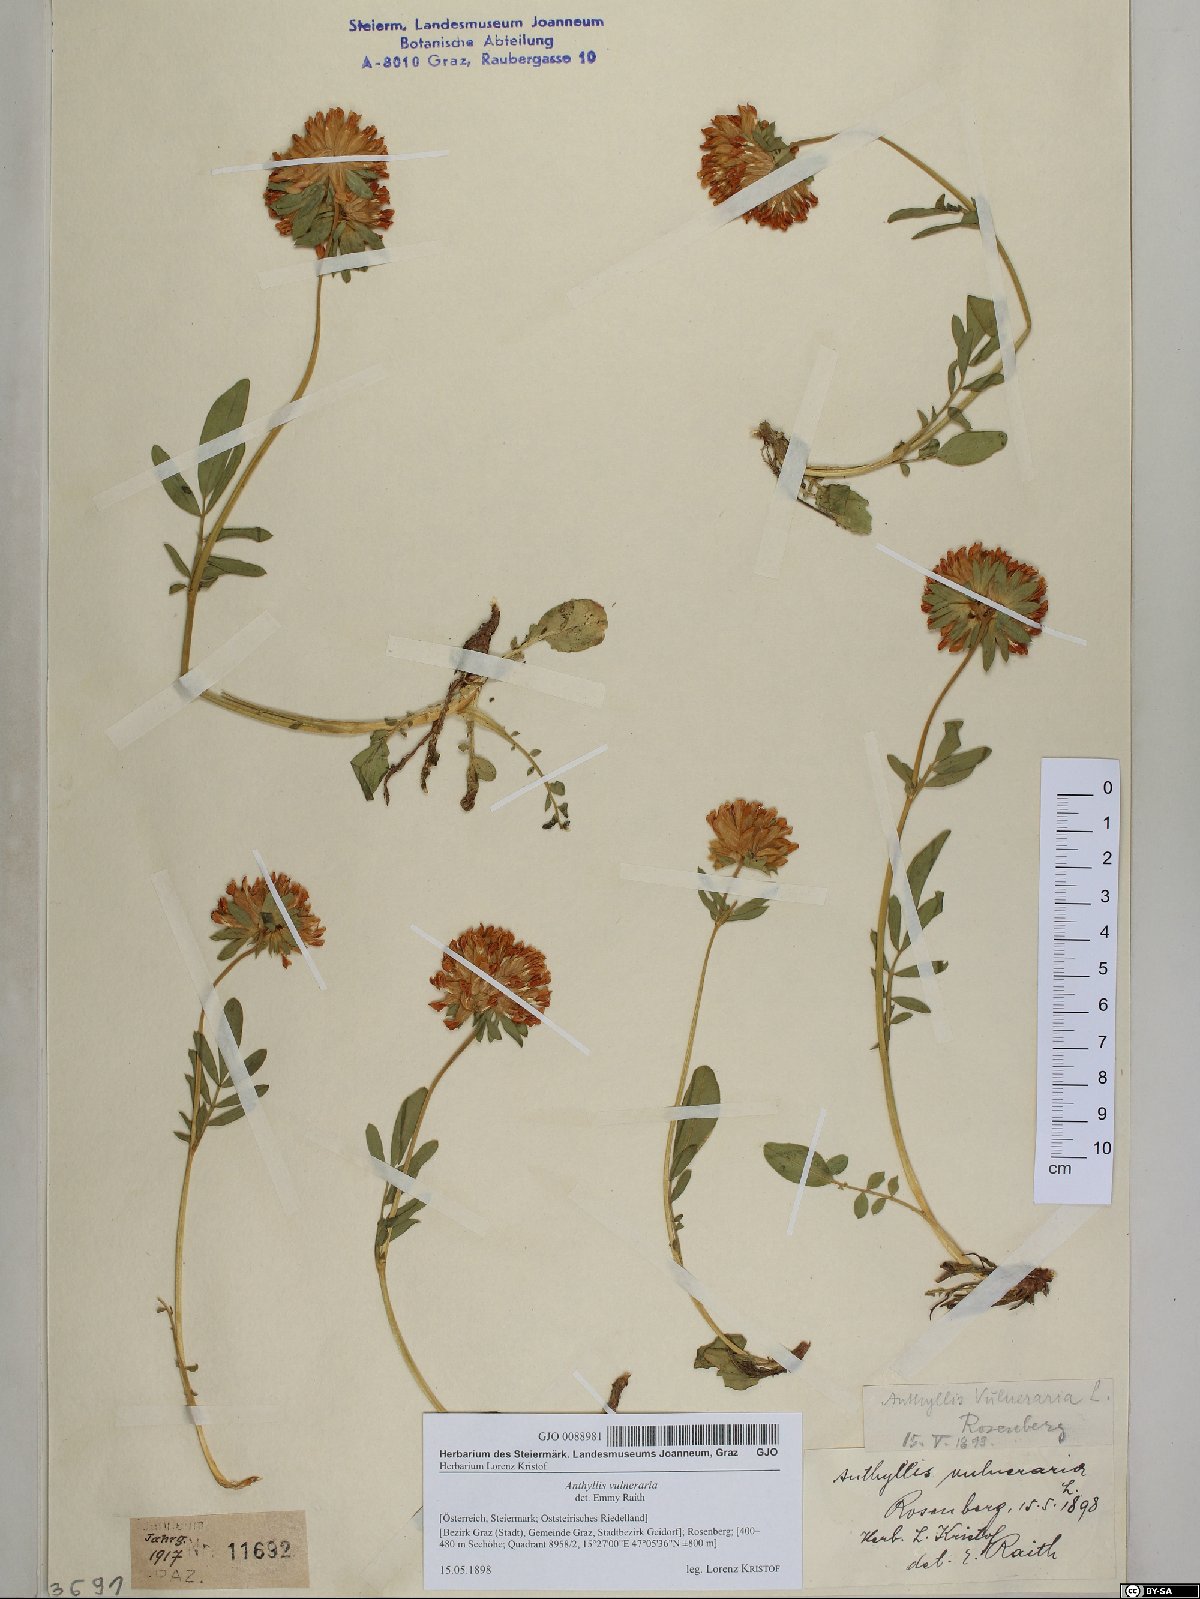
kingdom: Plantae
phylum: Tracheophyta
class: Magnoliopsida
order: Fabales
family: Fabaceae
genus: Anthyllis
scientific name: Anthyllis vulneraria
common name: Kidney vetch
